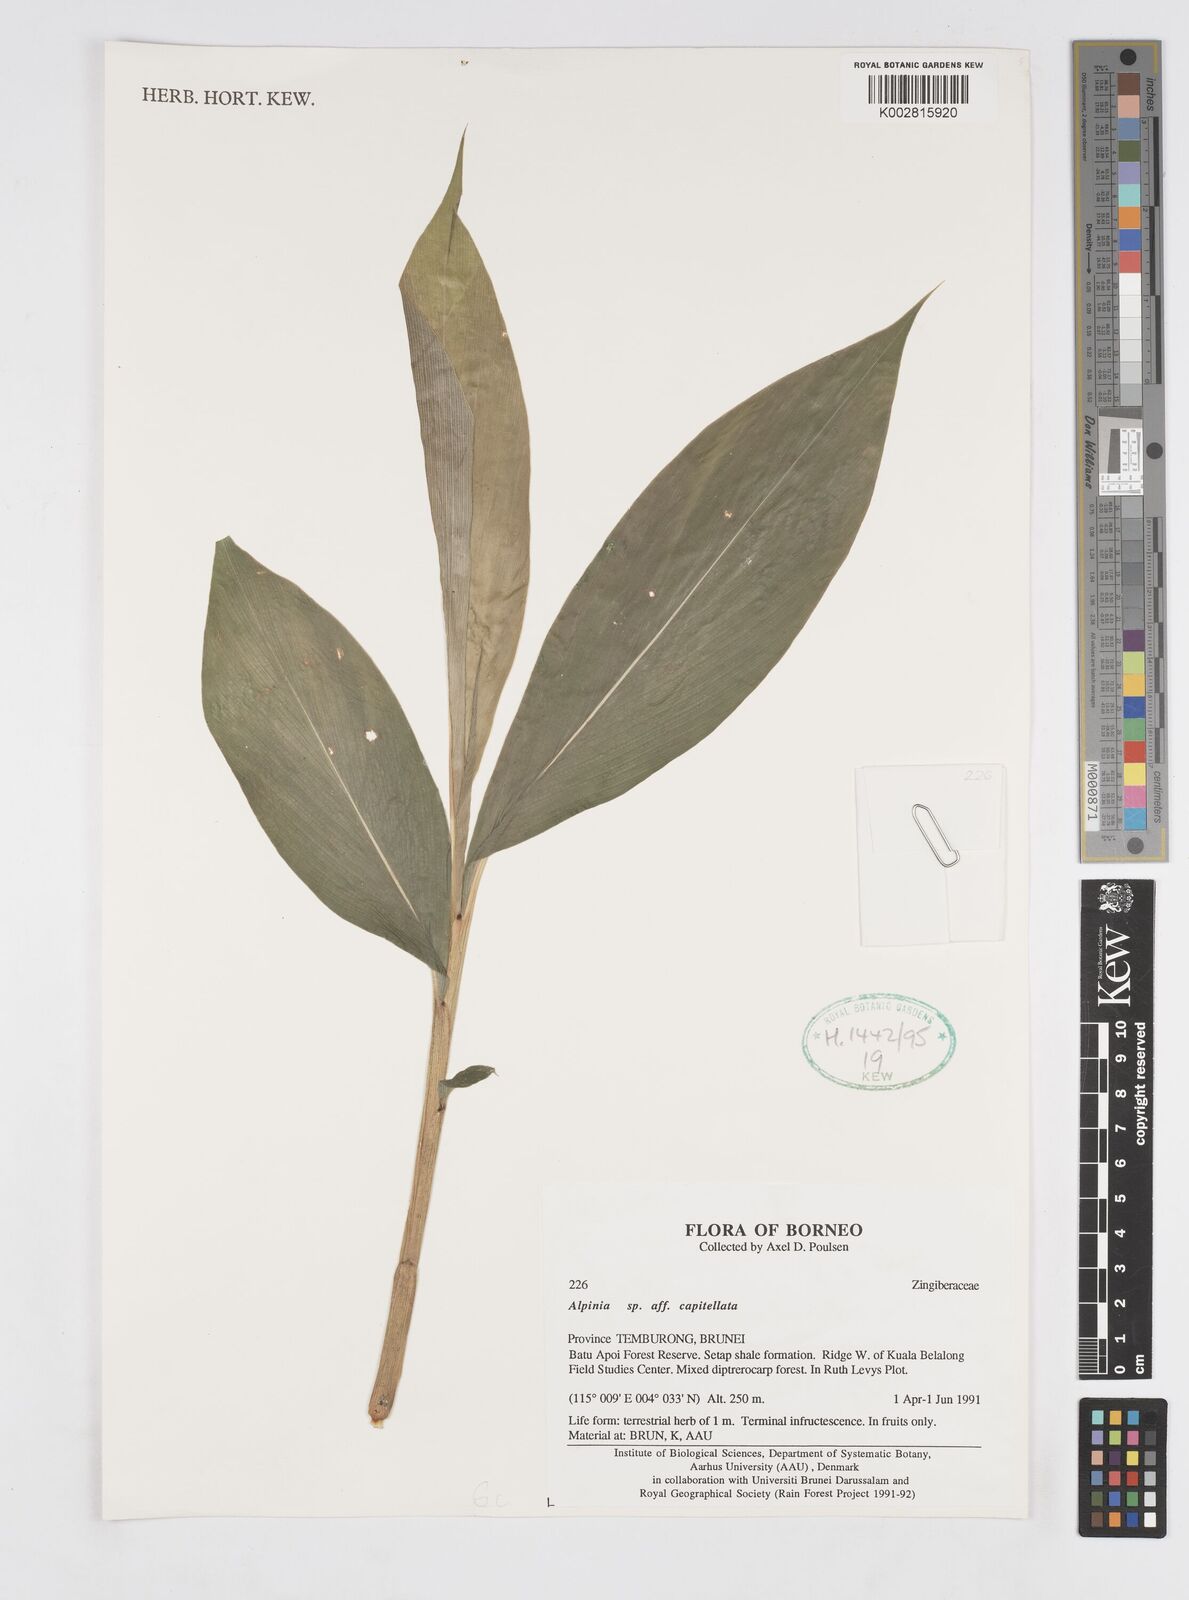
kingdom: Plantae
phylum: Tracheophyta
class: Liliopsida
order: Zingiberales
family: Zingiberaceae
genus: Alpinia
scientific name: Alpinia capitellata
